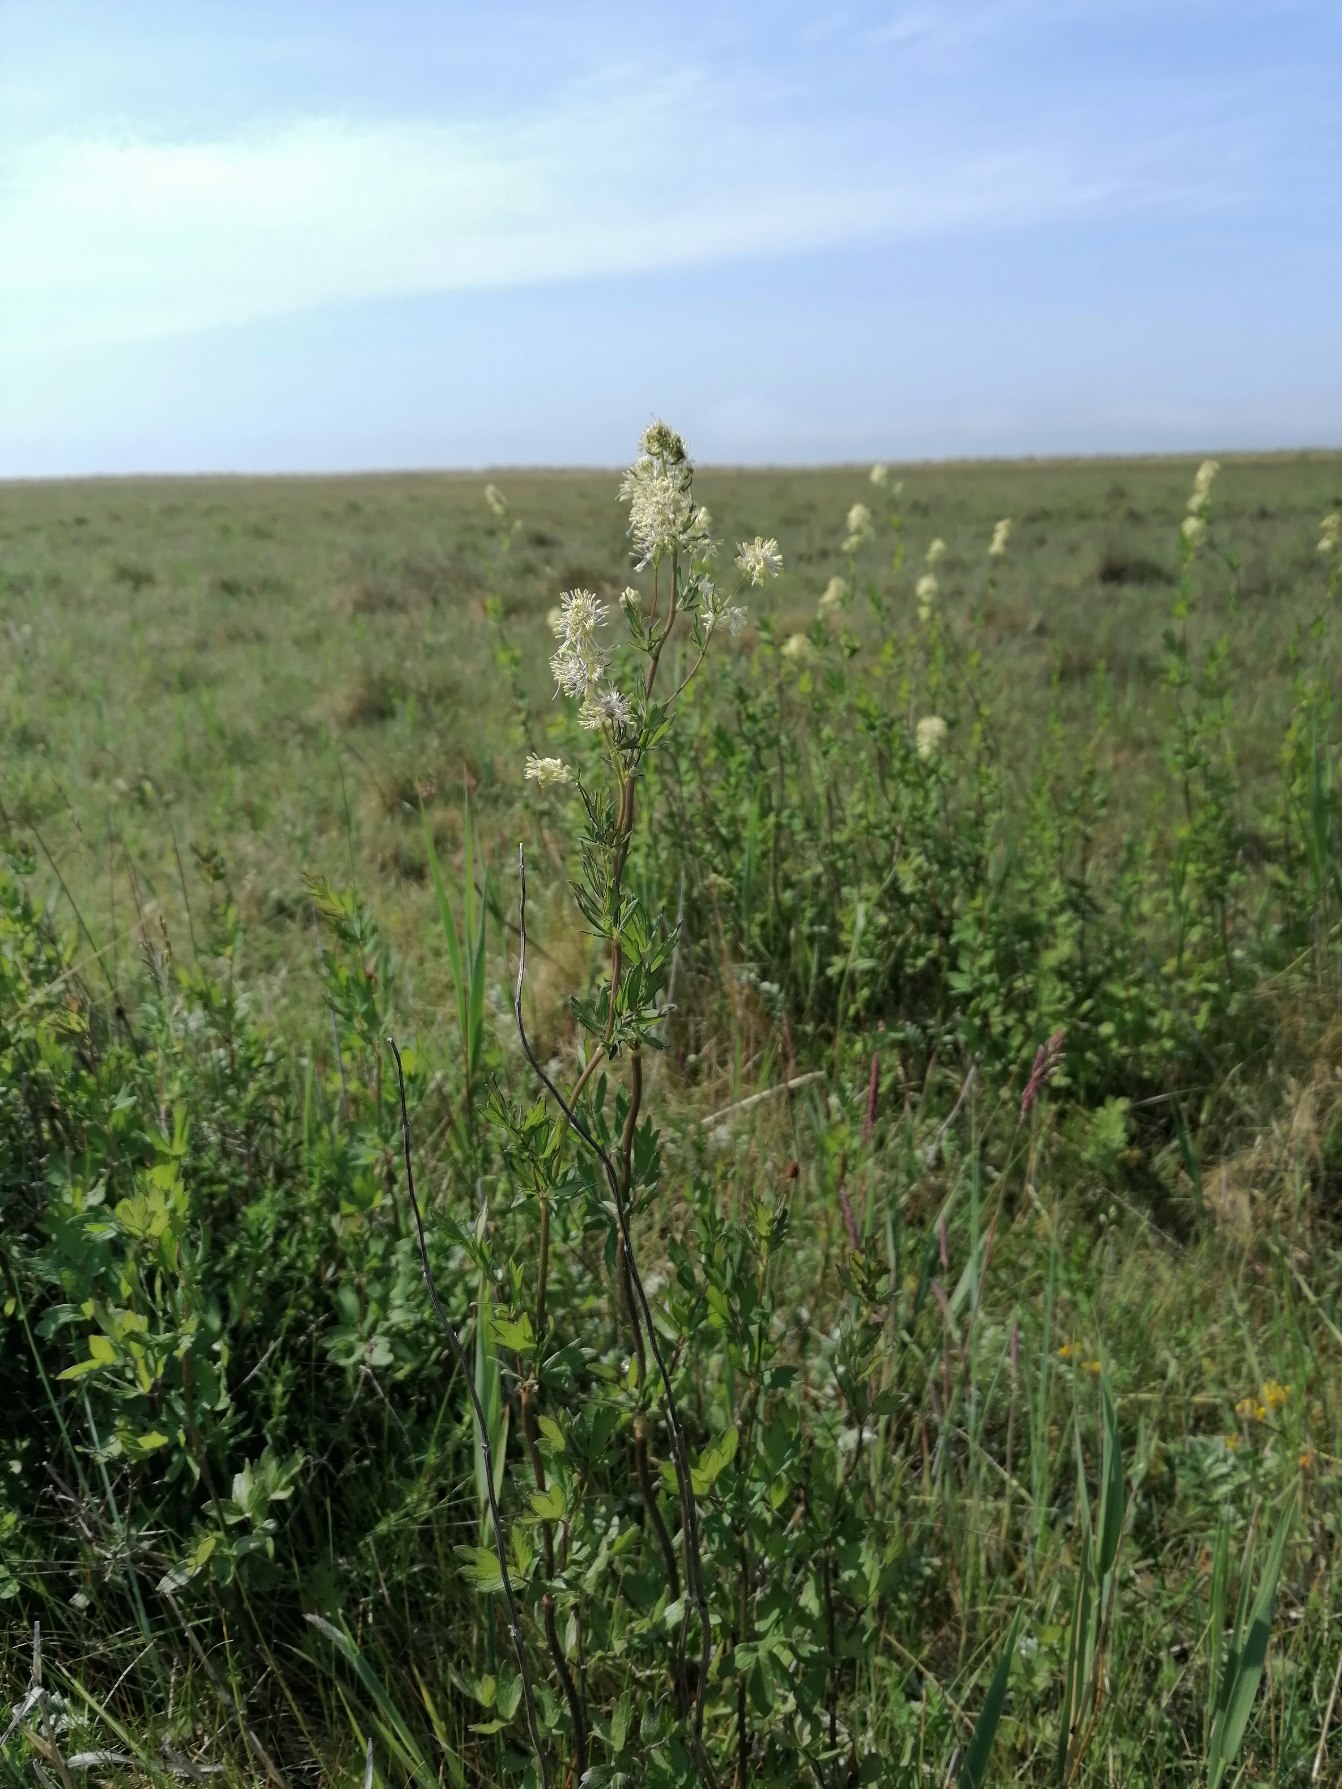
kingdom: Plantae
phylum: Tracheophyta
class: Magnoliopsida
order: Ranunculales
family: Ranunculaceae
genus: Thalictrum
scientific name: Thalictrum flavum
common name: Gul frøstjerne
